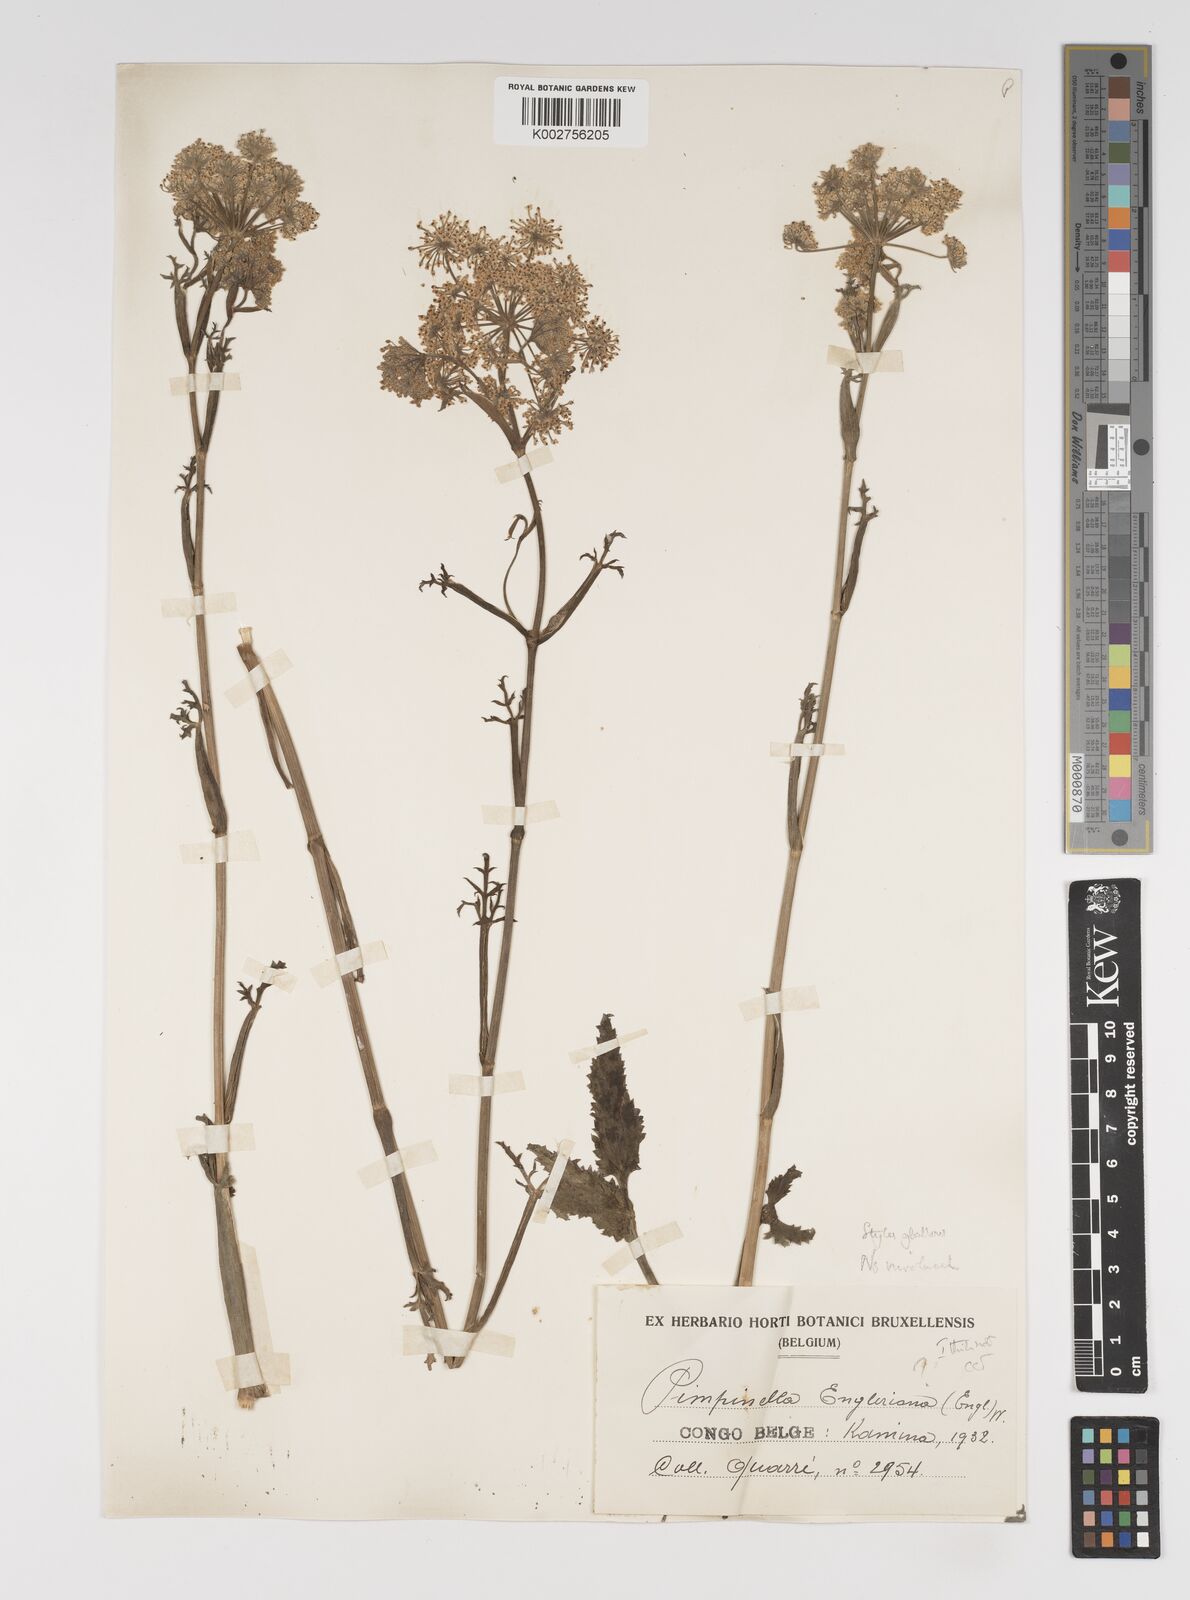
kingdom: Plantae
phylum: Tracheophyta
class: Magnoliopsida
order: Apiales
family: Apiaceae
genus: Pimpinella
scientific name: Pimpinella kingdon-wardii
